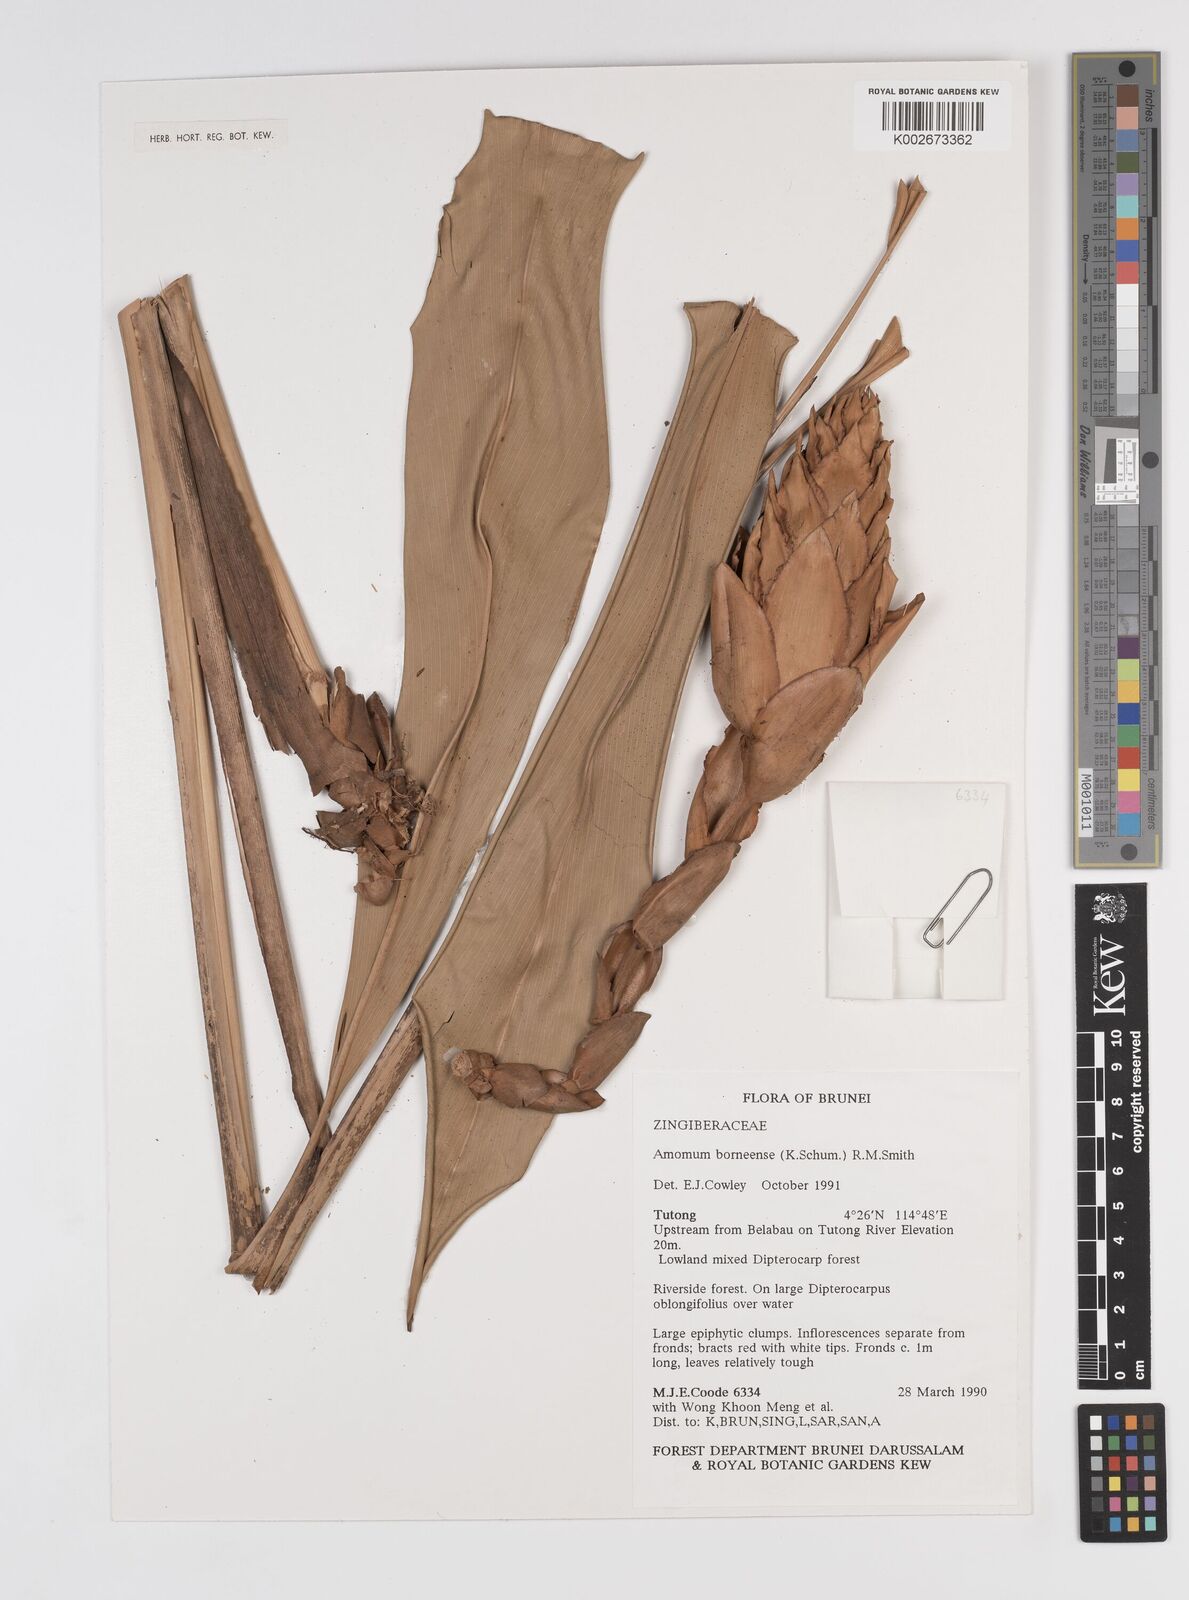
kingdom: Plantae
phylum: Tracheophyta
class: Liliopsida
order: Zingiberales
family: Zingiberaceae
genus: Epiamomum
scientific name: Epiamomum borneense
